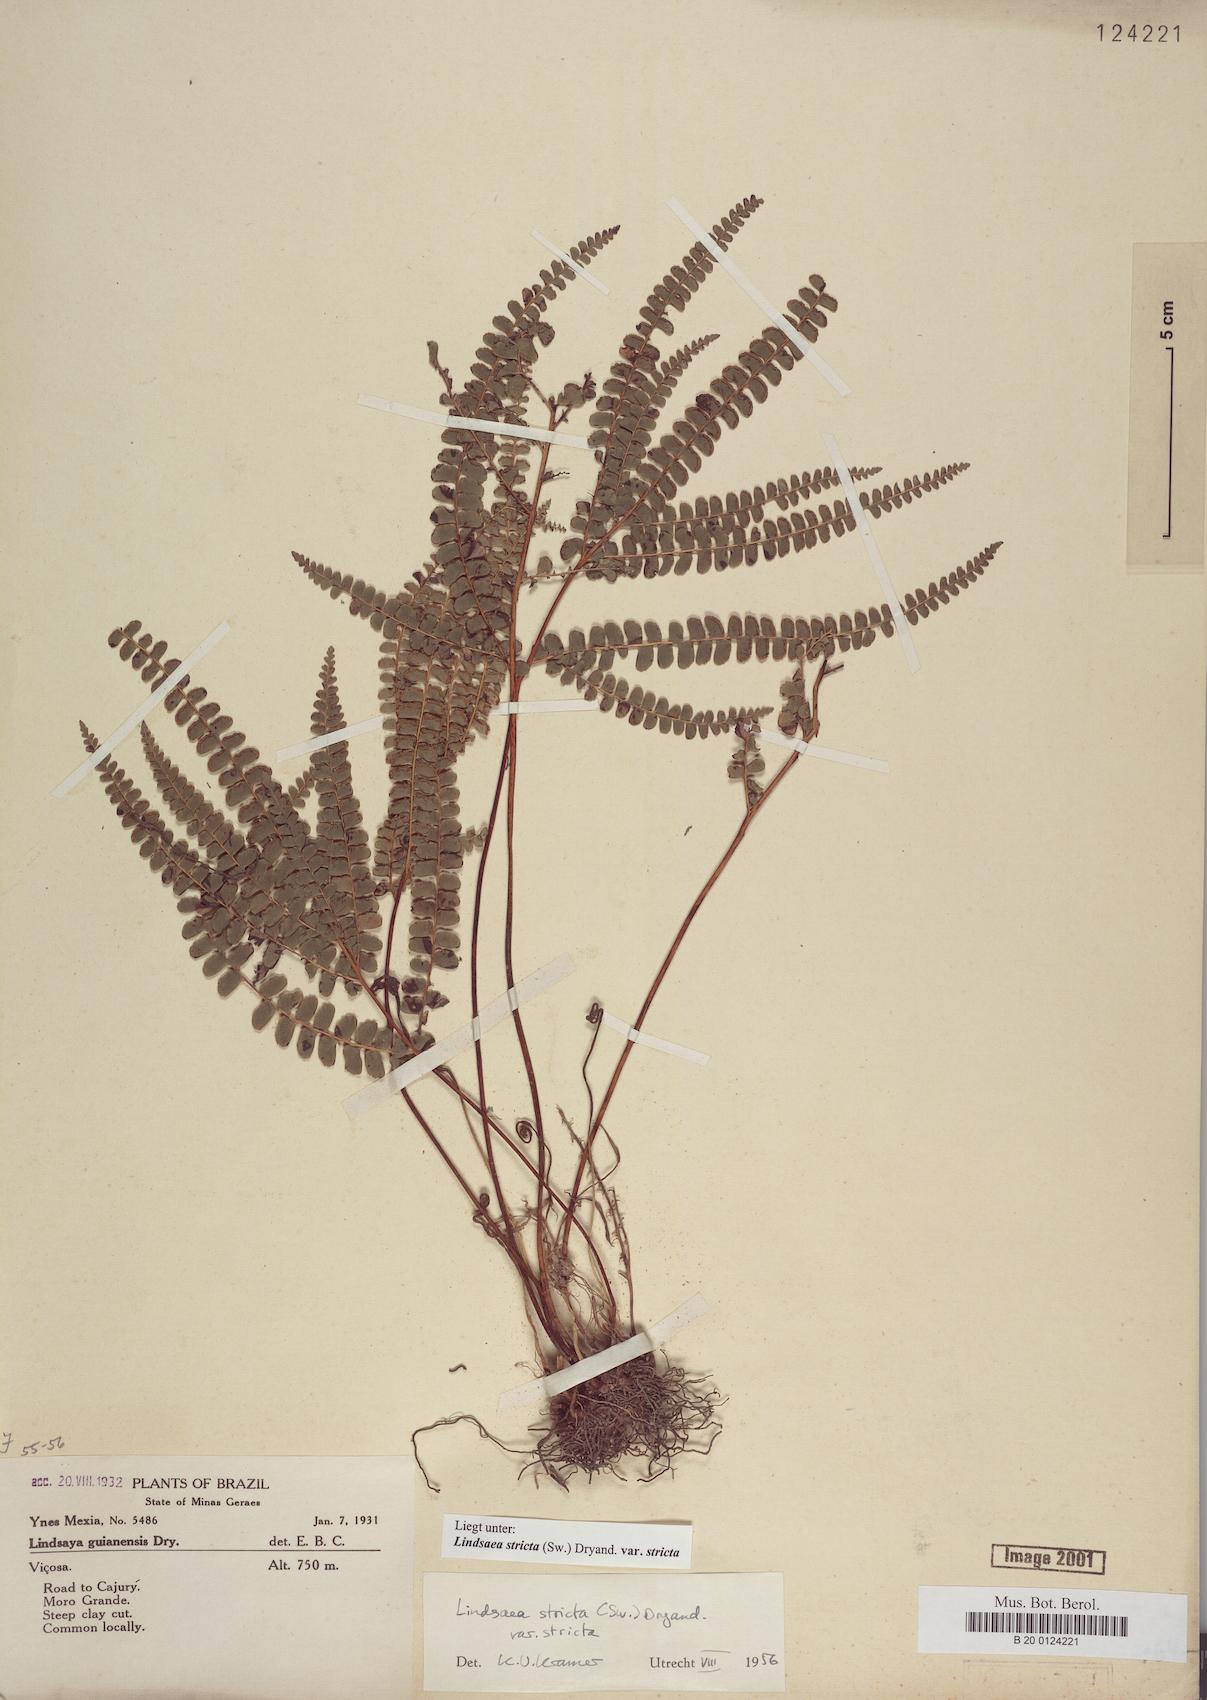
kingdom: Plantae
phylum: Tracheophyta
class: Polypodiopsida
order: Polypodiales
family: Lindsaeaceae
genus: Lindsaea
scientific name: Lindsaea stricta
